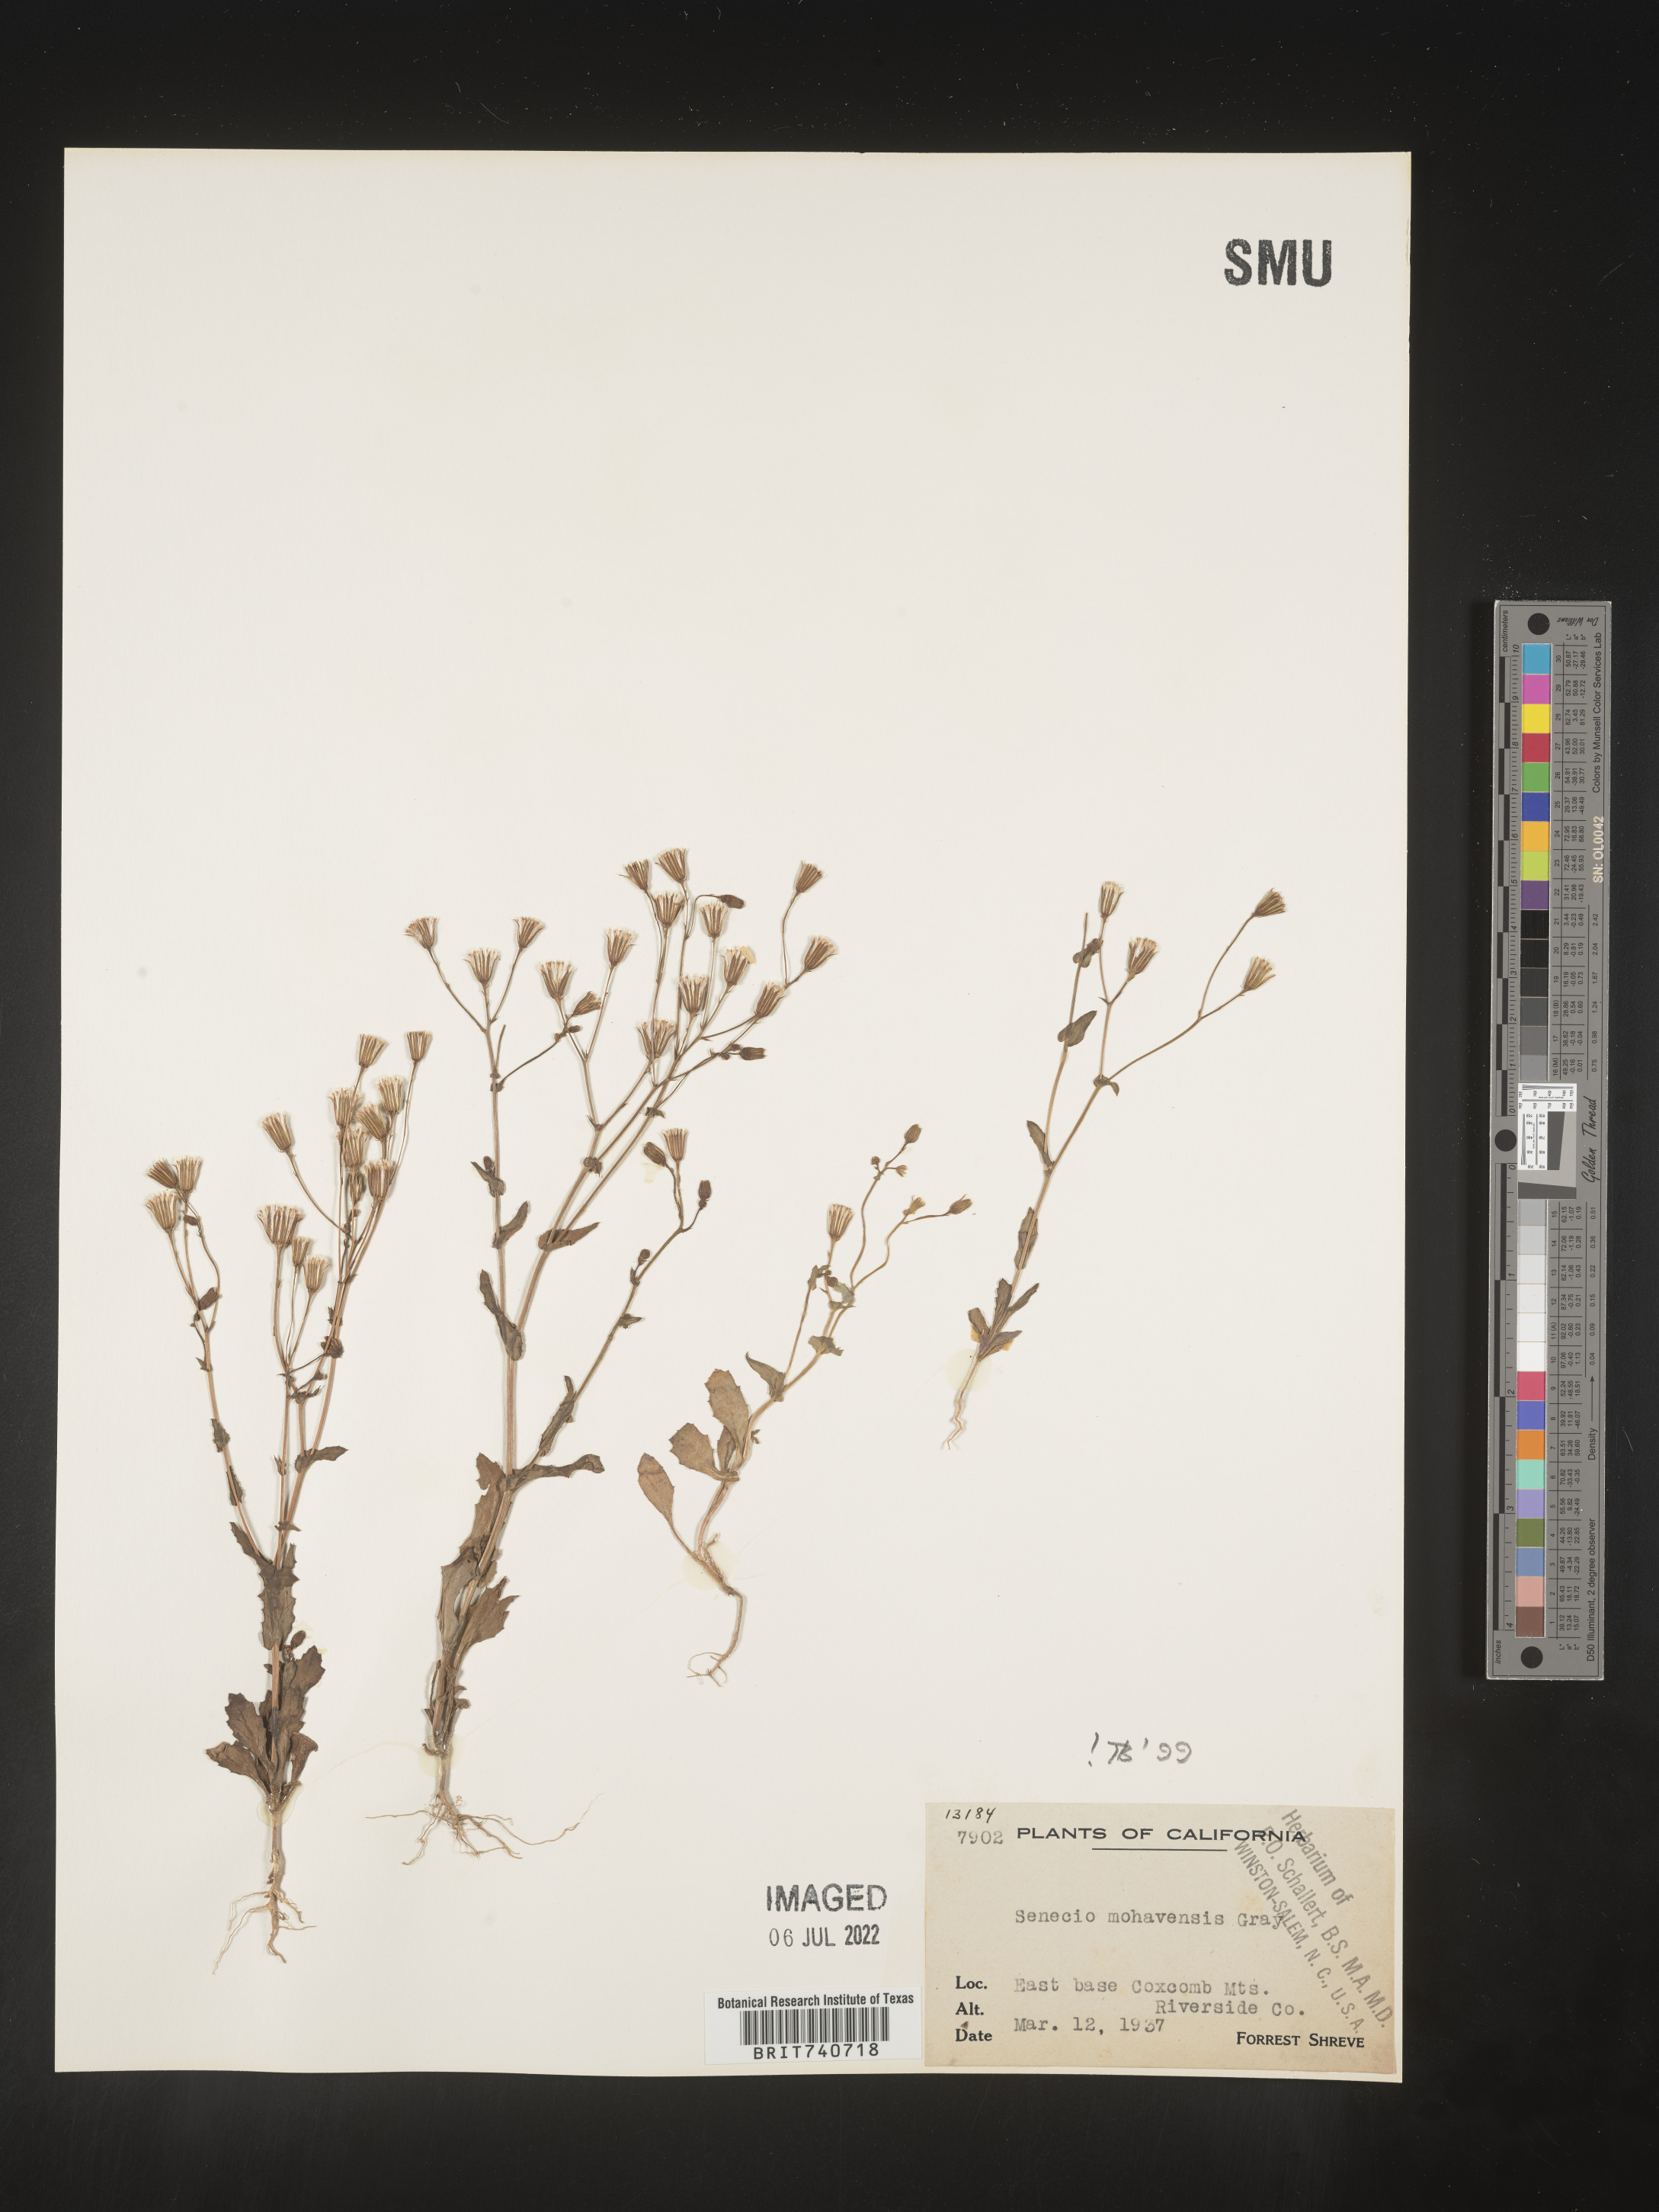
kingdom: Plantae
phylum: Tracheophyta
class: Magnoliopsida
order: Asterales
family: Asteraceae
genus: Senecio
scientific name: Senecio mohavensis
